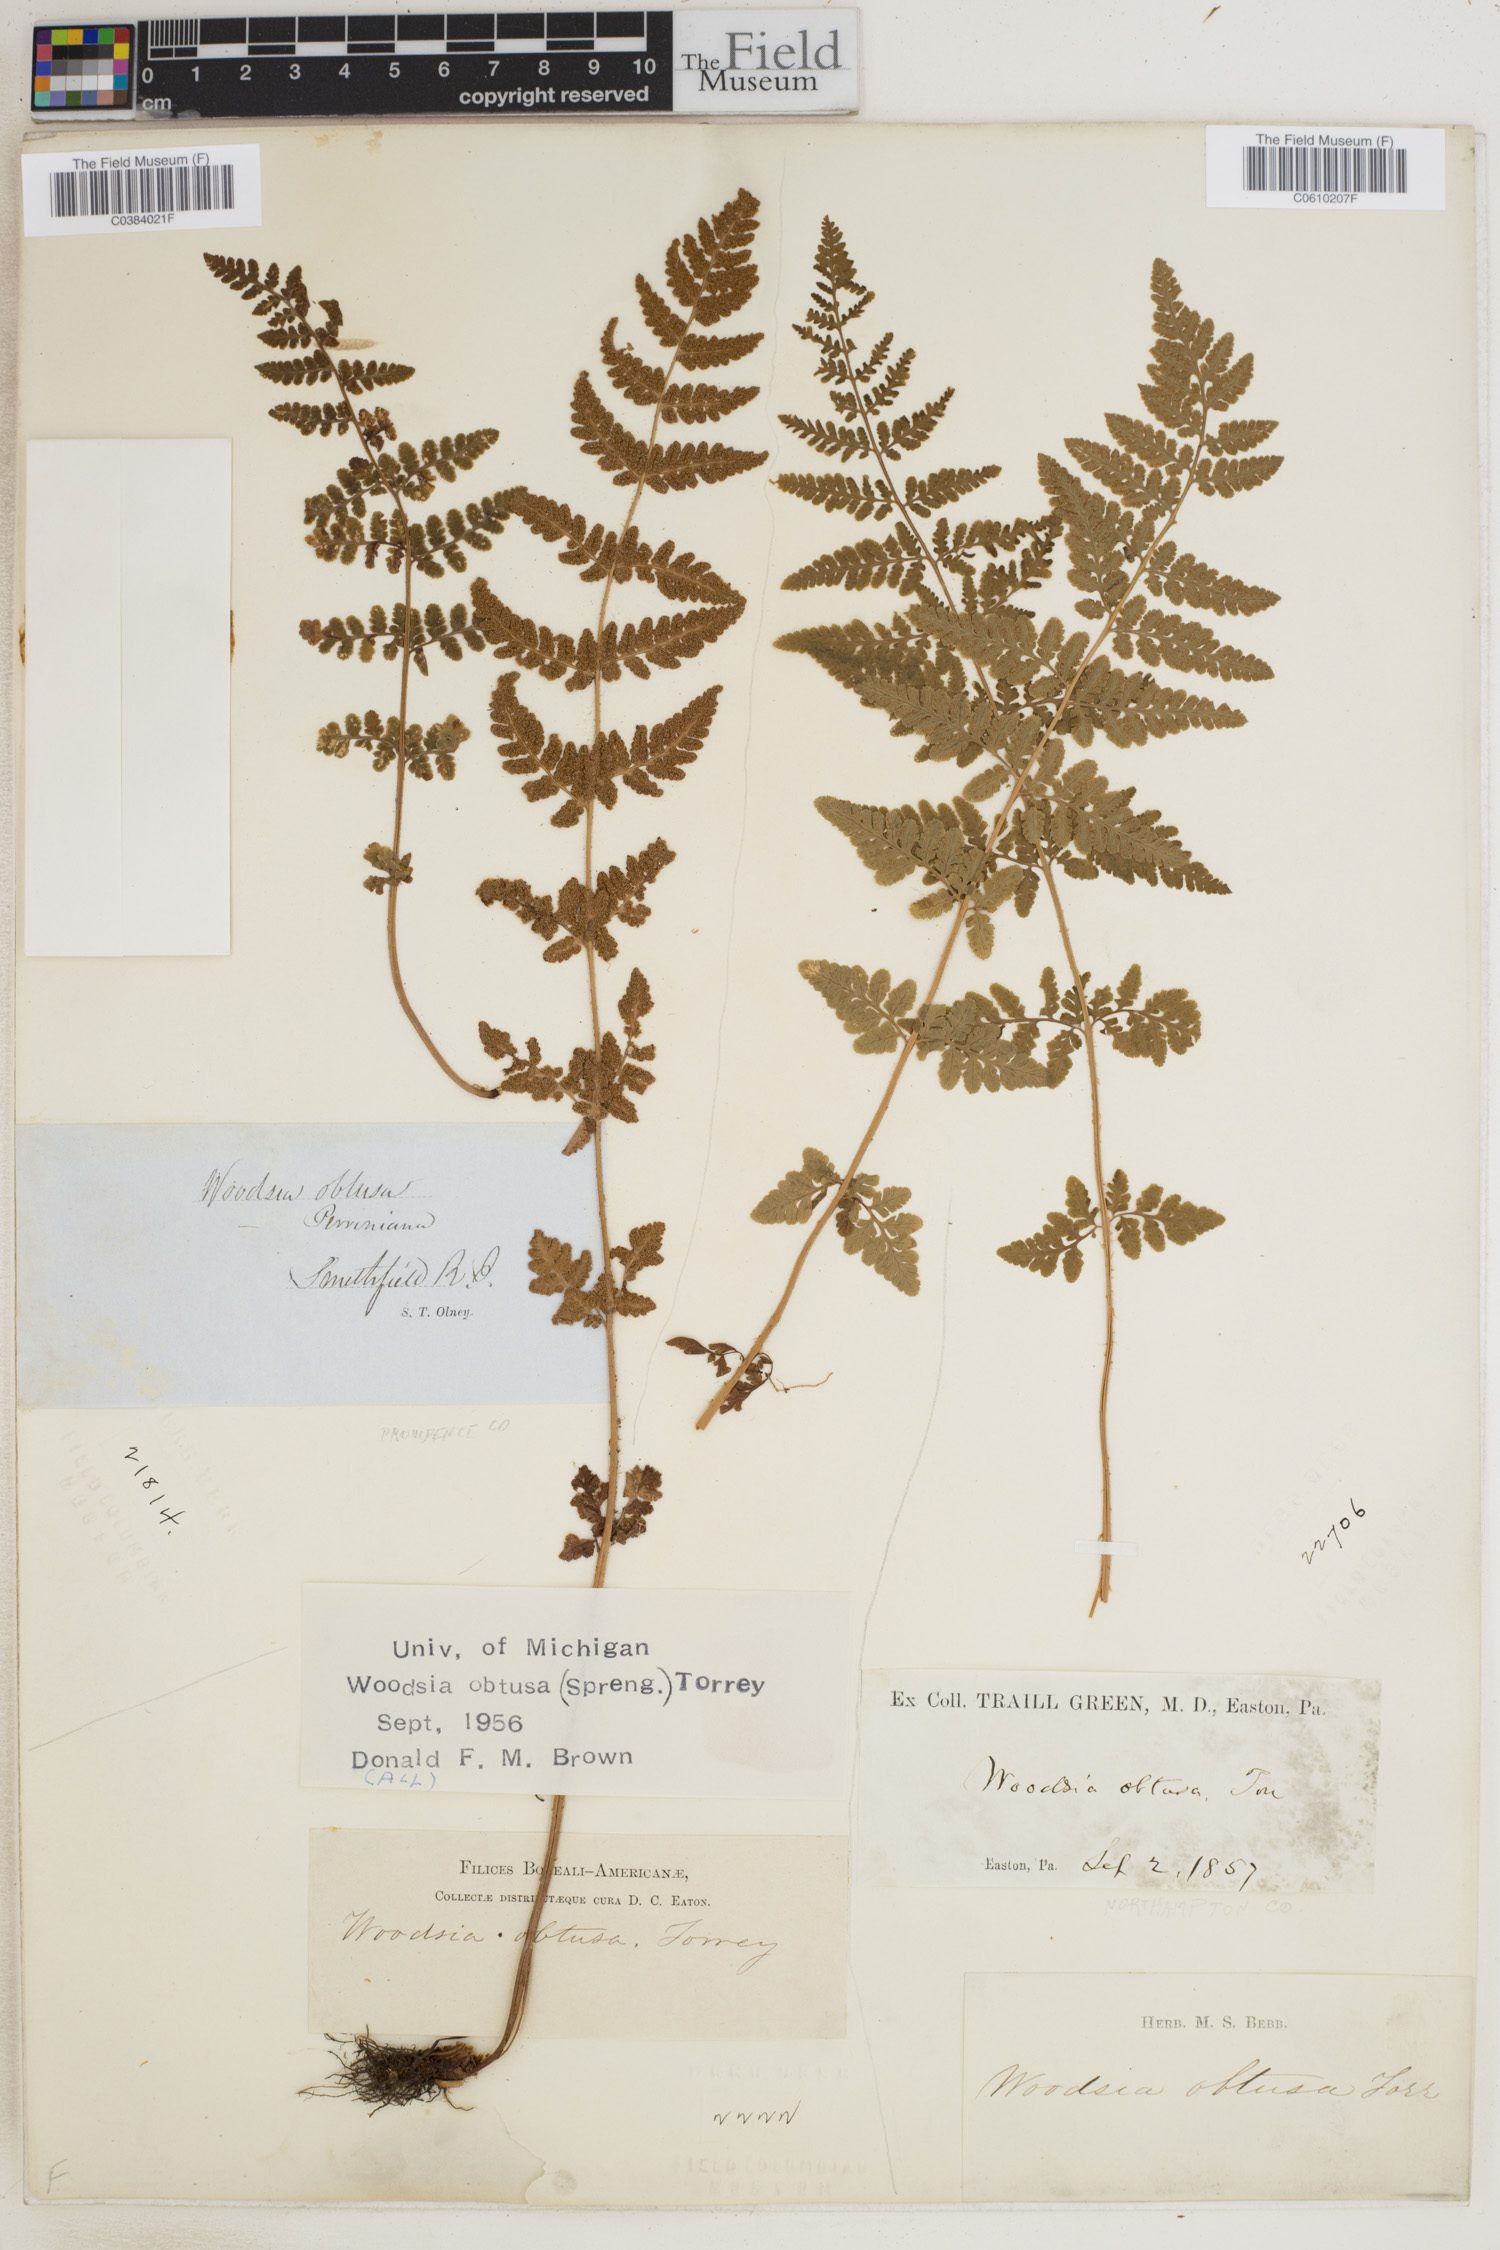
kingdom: Plantae
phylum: Tracheophyta
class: Polypodiopsida
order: Polypodiales
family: Woodsiaceae
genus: Physematium
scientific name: Physematium obtusum
